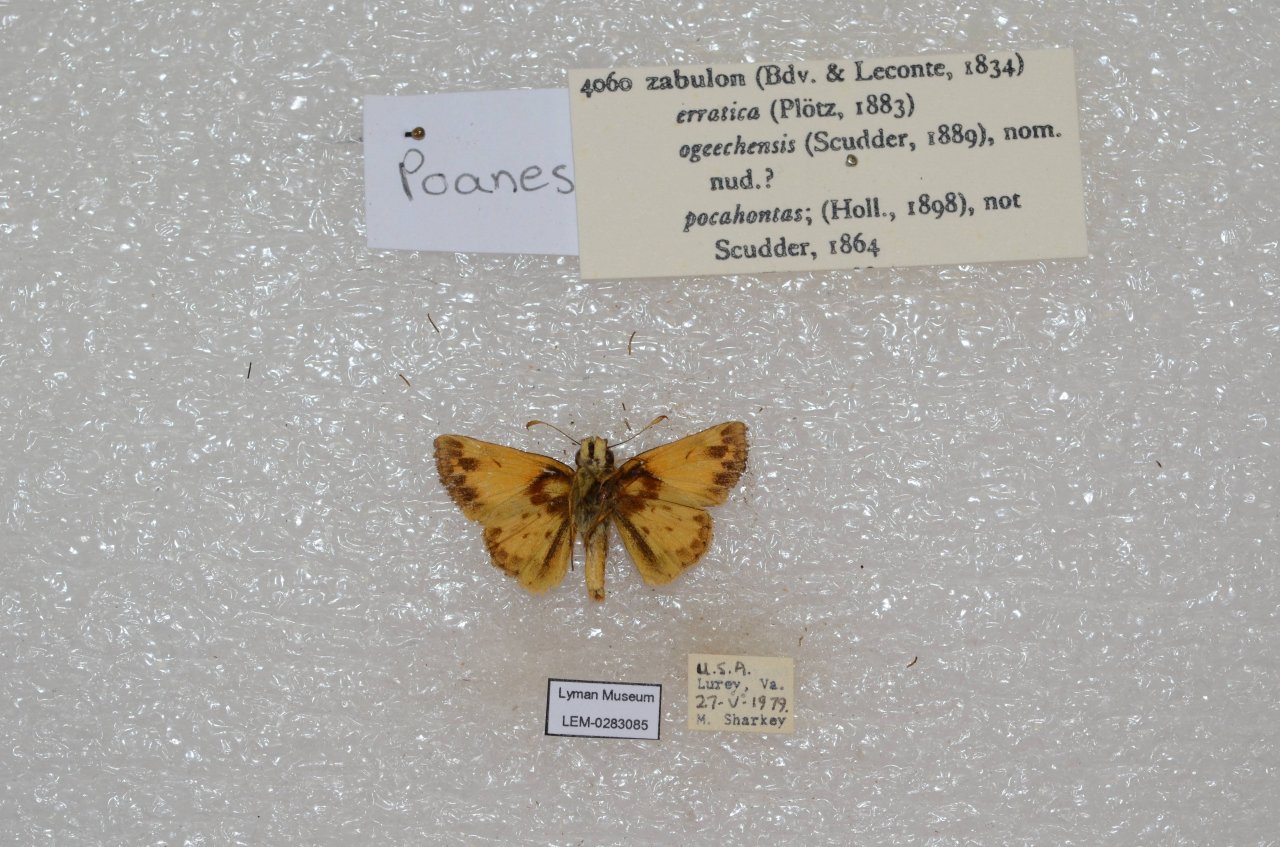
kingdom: Animalia
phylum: Arthropoda
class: Insecta
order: Lepidoptera
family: Hesperiidae
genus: Lon
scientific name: Lon zabulon
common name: Zabulon Skipper
